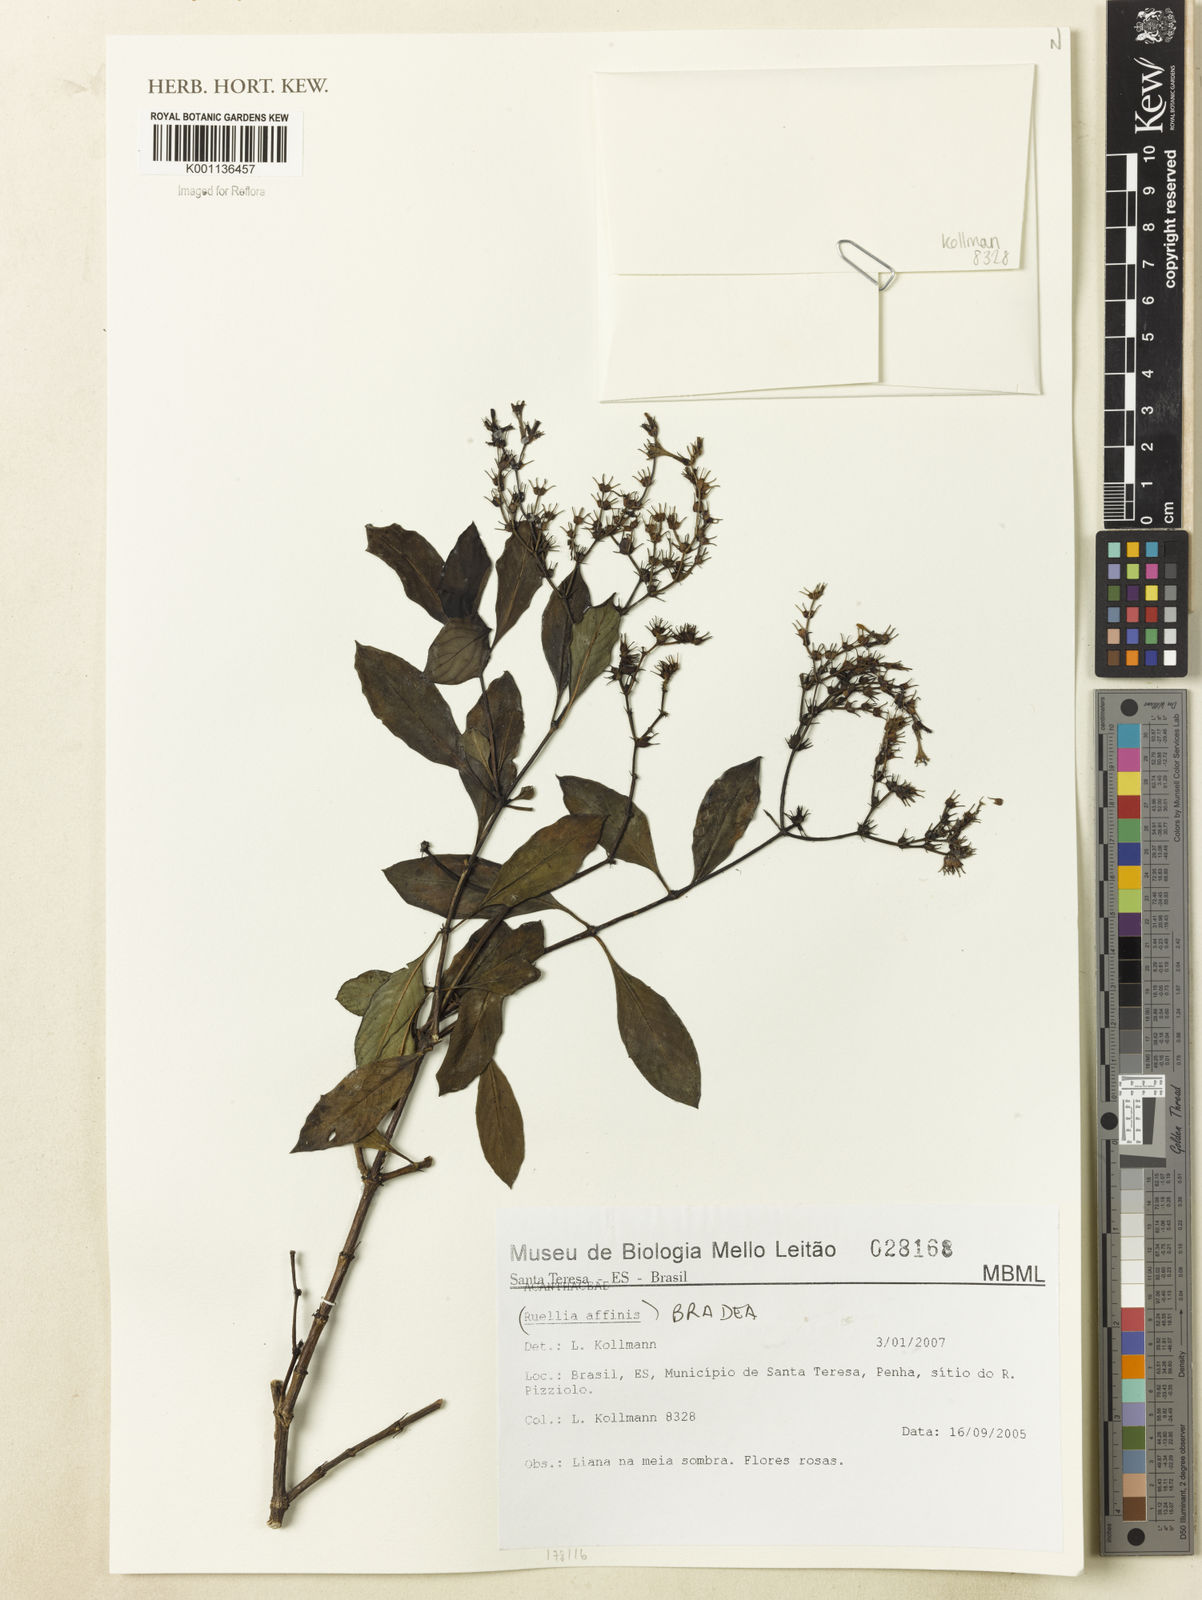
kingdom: Plantae
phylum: Tracheophyta
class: Magnoliopsida
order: Gentianales
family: Rubiaceae
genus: Bradea
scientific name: Bradea
